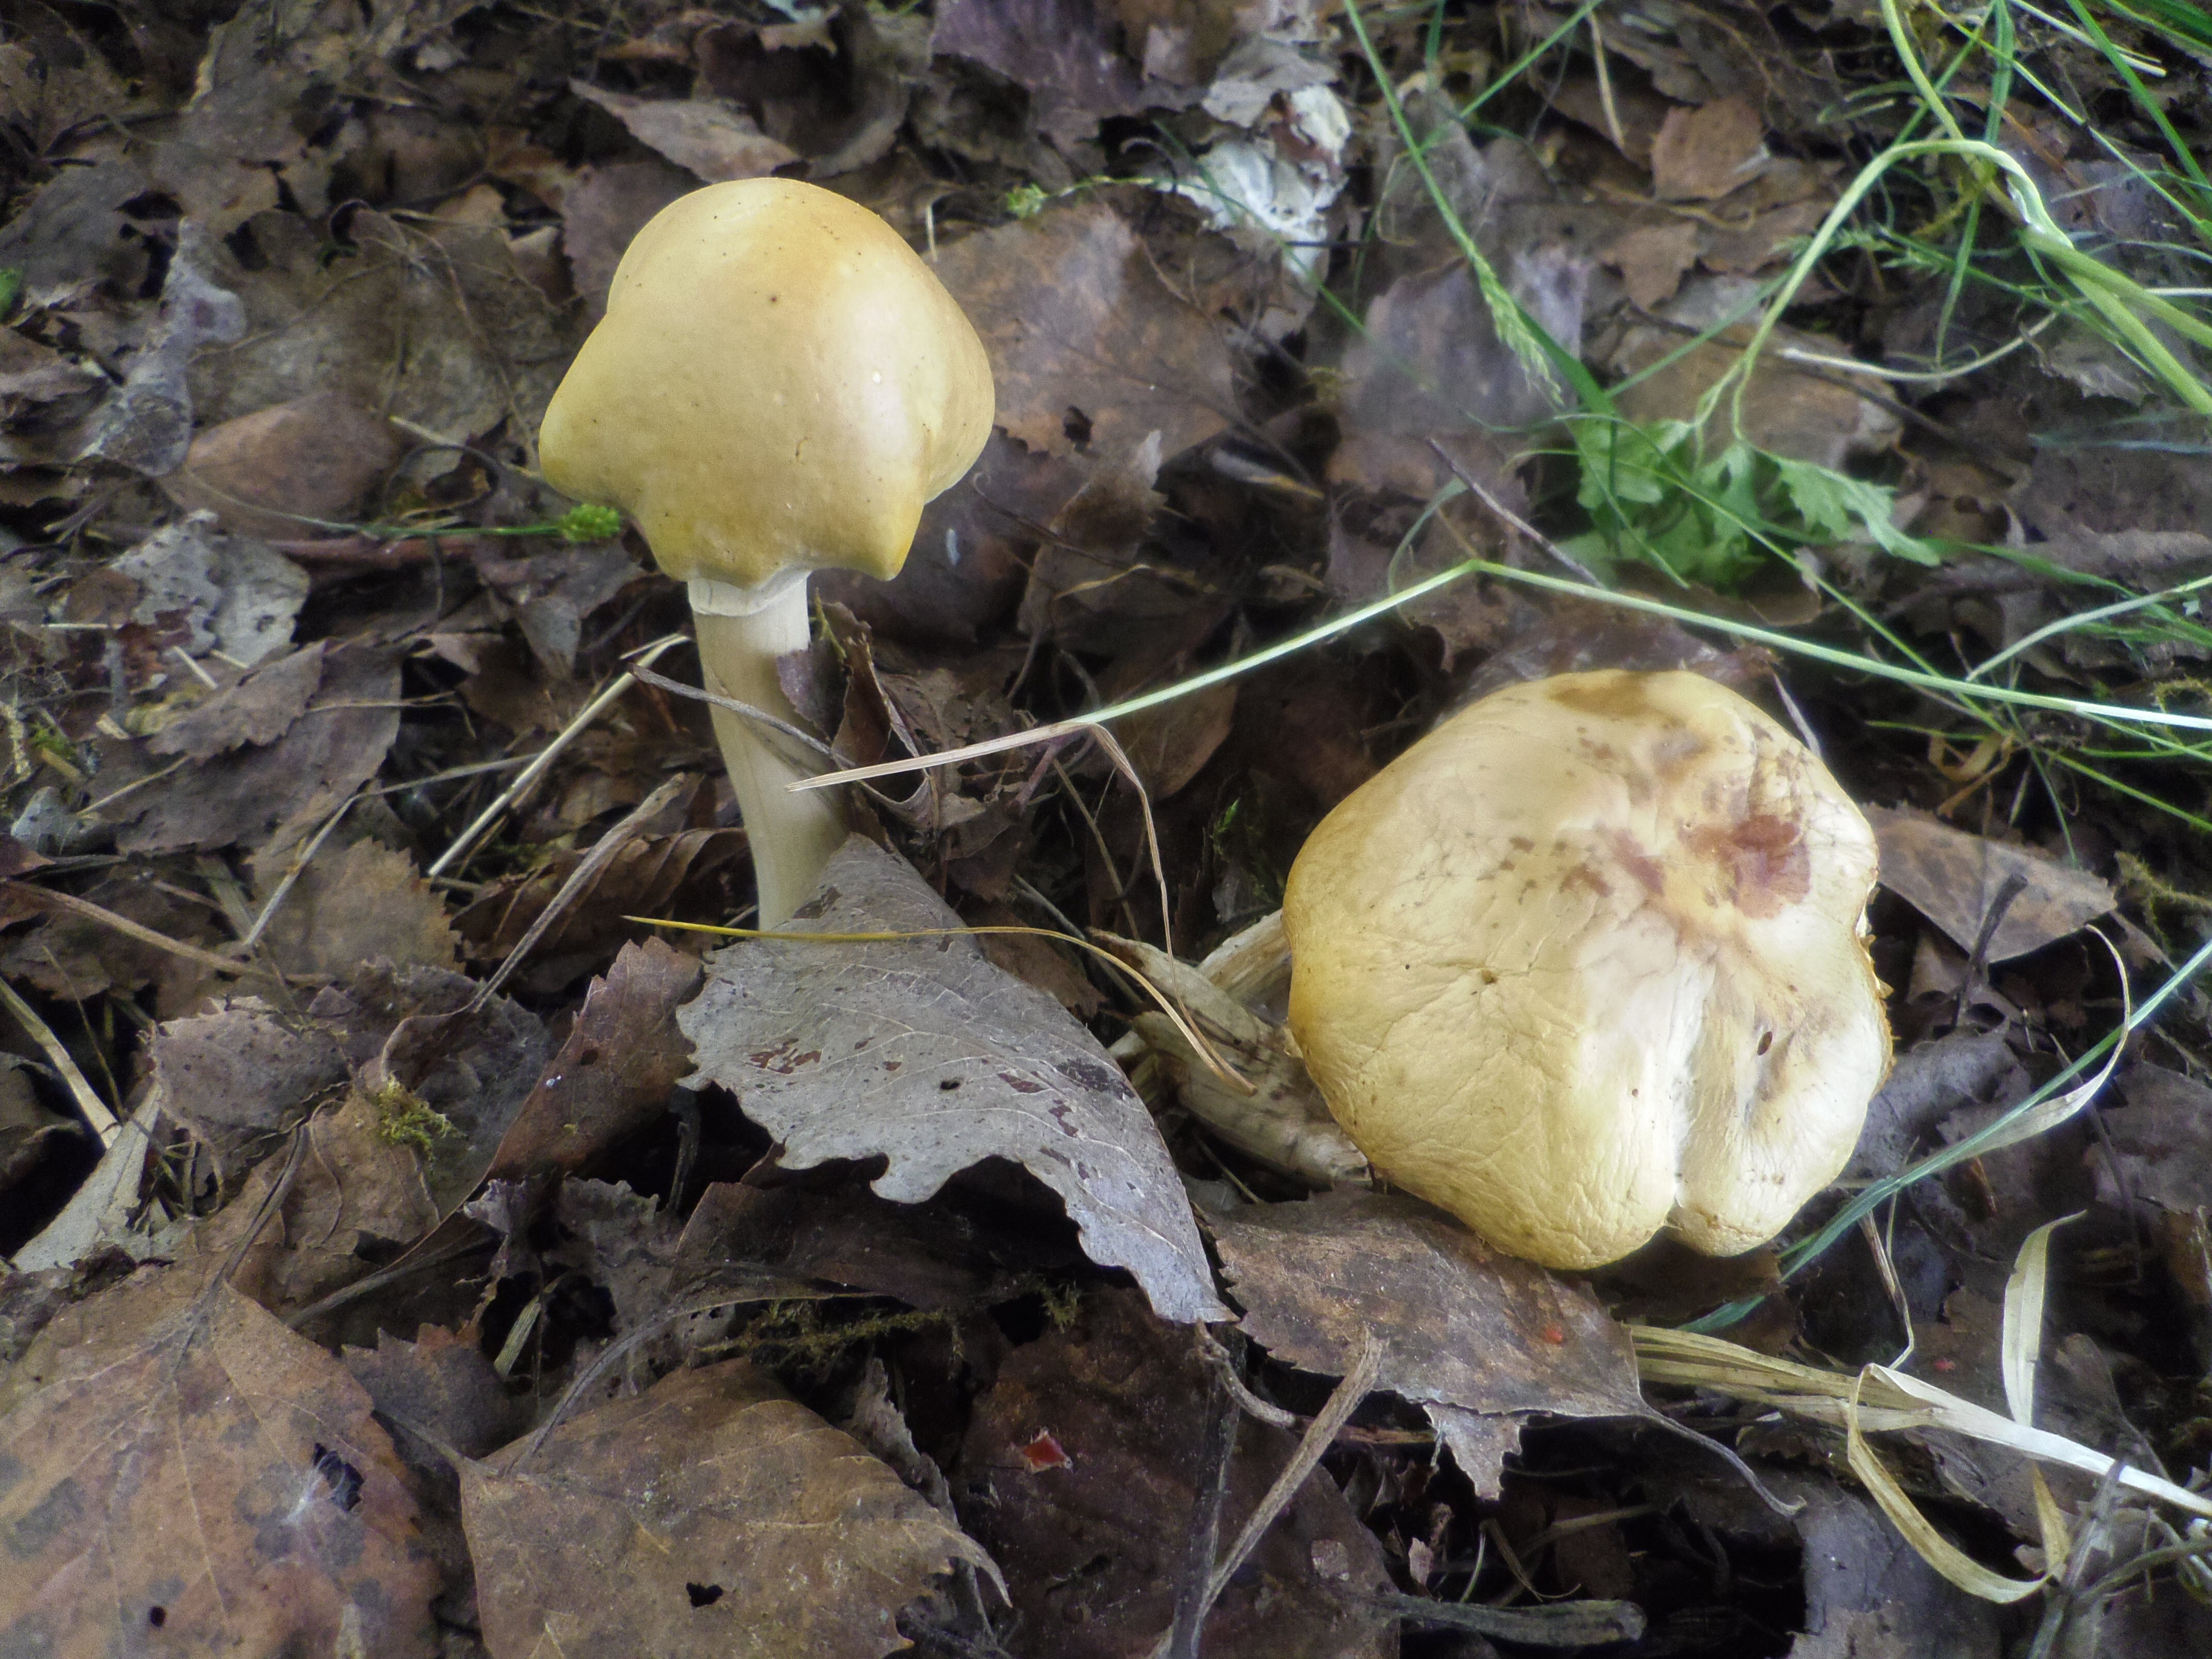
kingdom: Fungi
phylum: Basidiomycota
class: Agaricomycetes
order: Agaricales
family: Strophariaceae
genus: Agrocybe
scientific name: Agrocybe praecox
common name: Spring fieldcap
